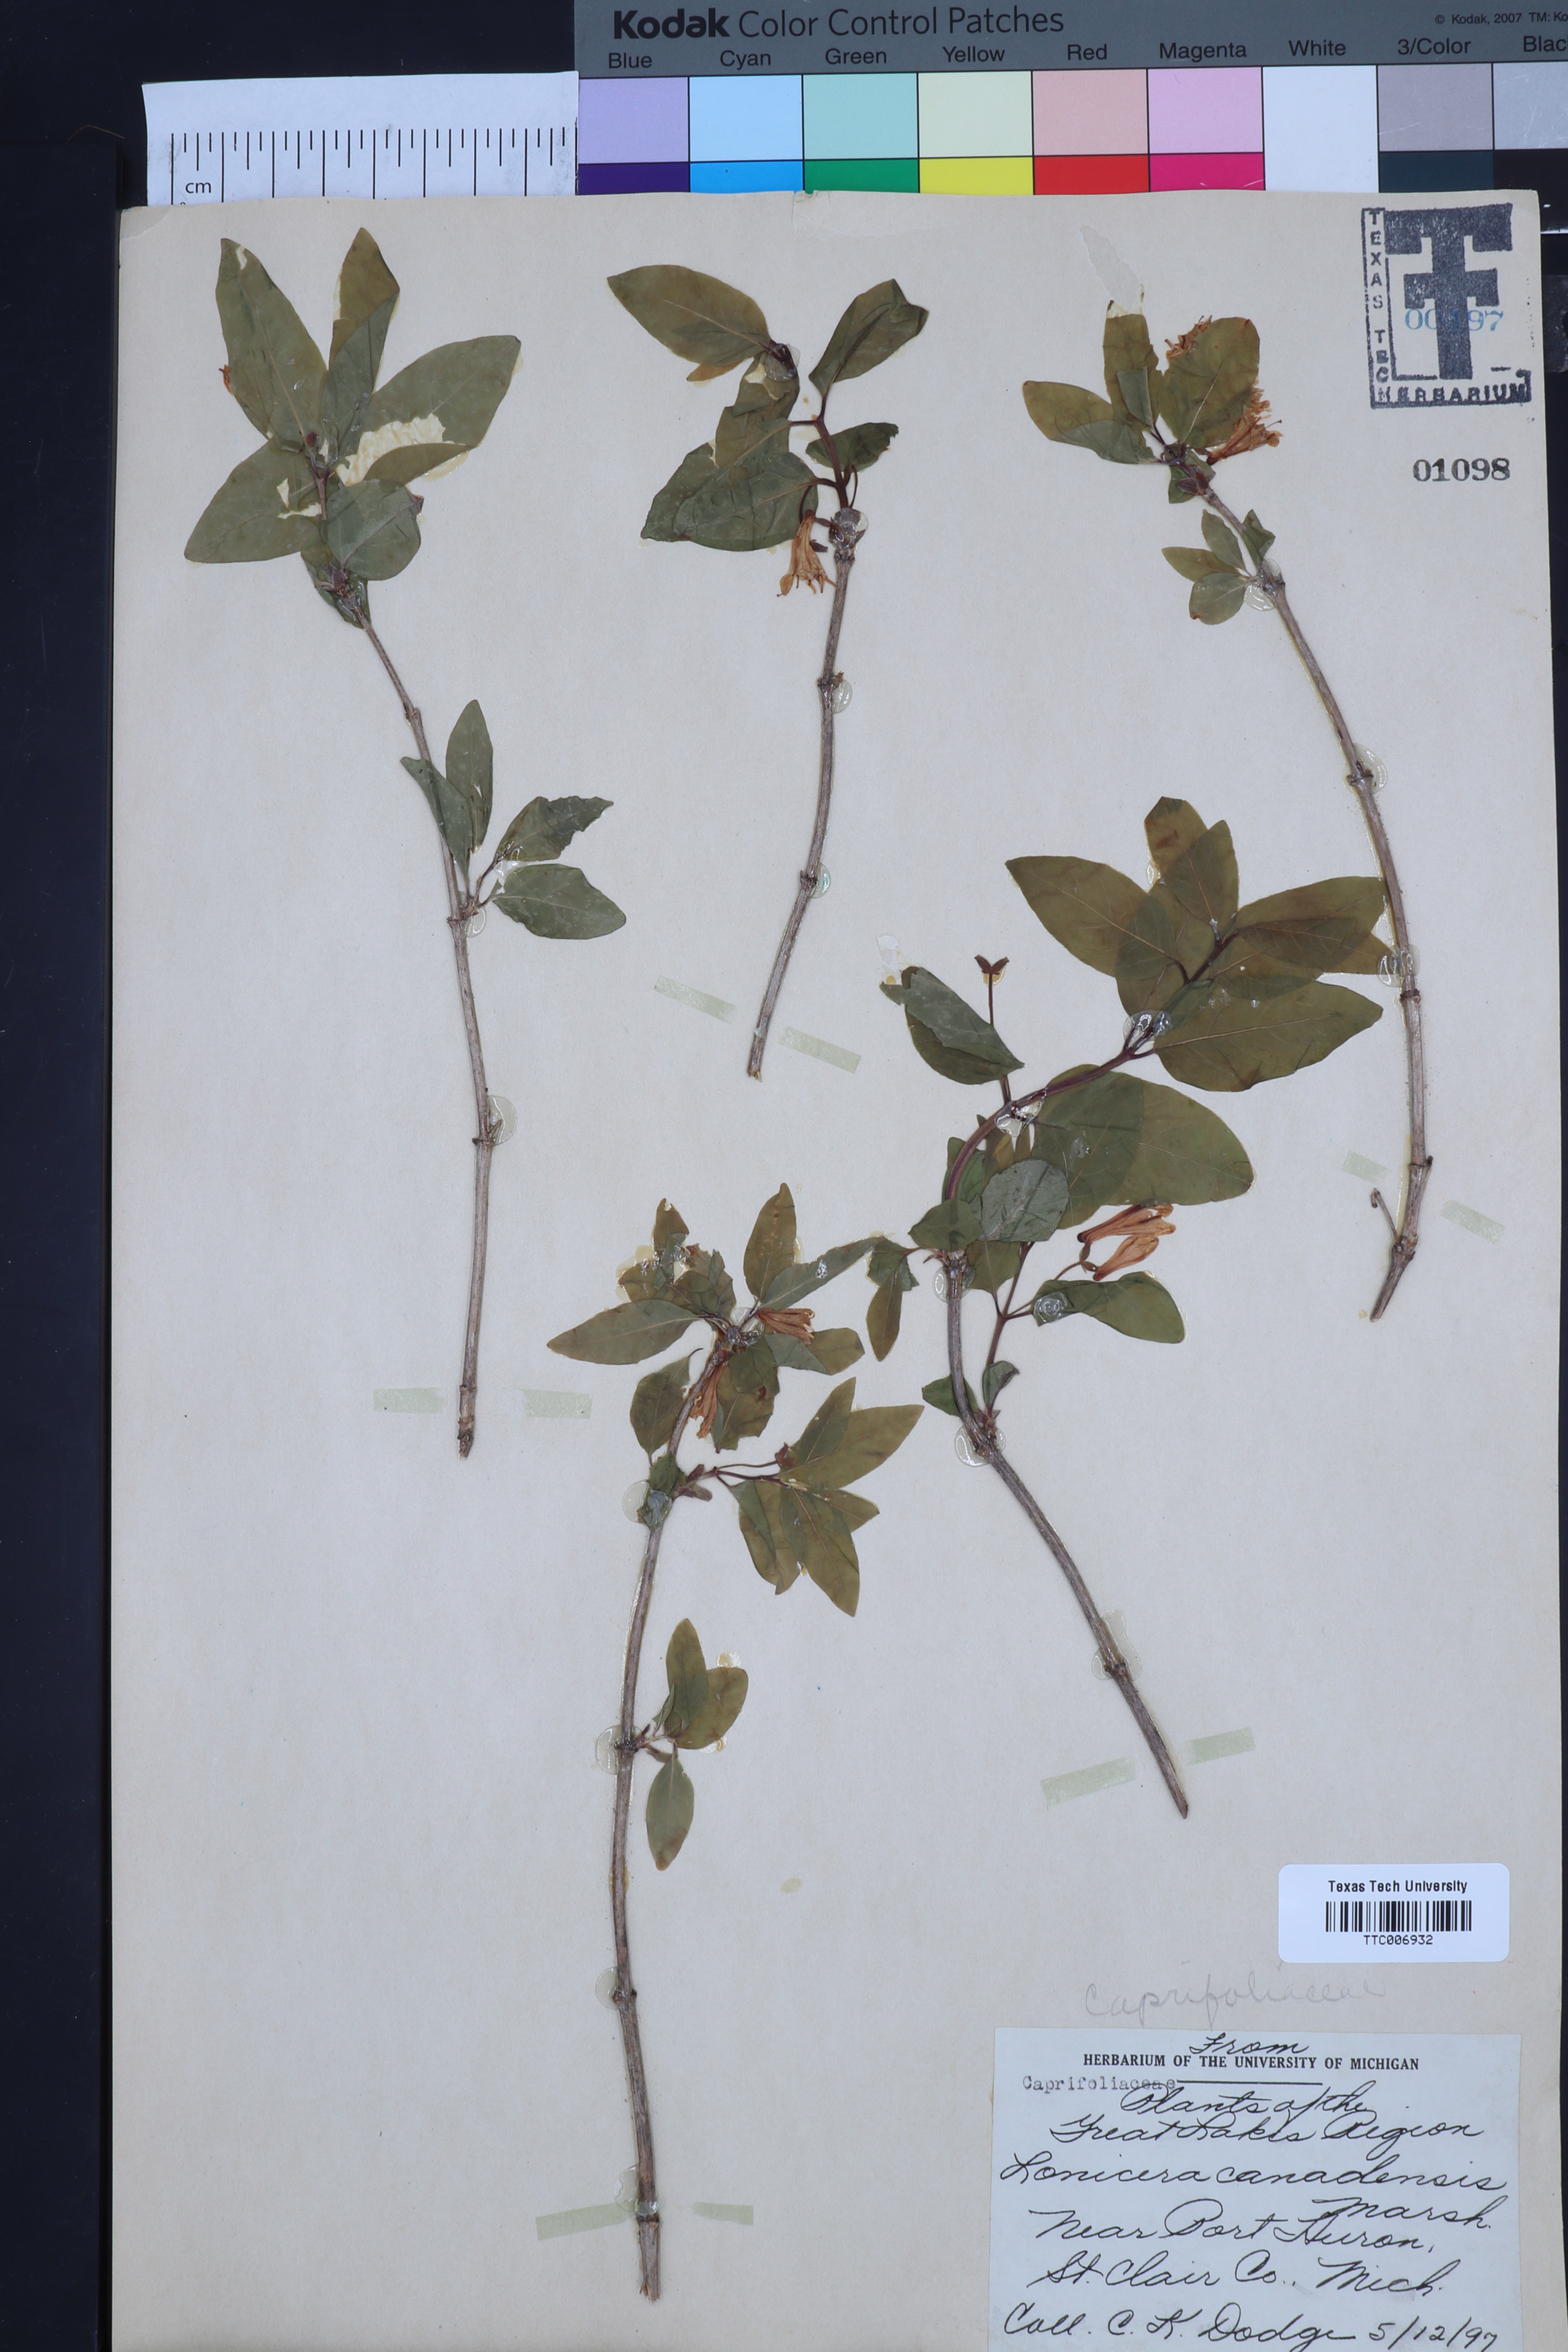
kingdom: Plantae
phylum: Tracheophyta
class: Magnoliopsida
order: Dipsacales
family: Caprifoliaceae
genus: Lonicera
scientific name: Lonicera canadensis
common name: American fly-honeysuckle
